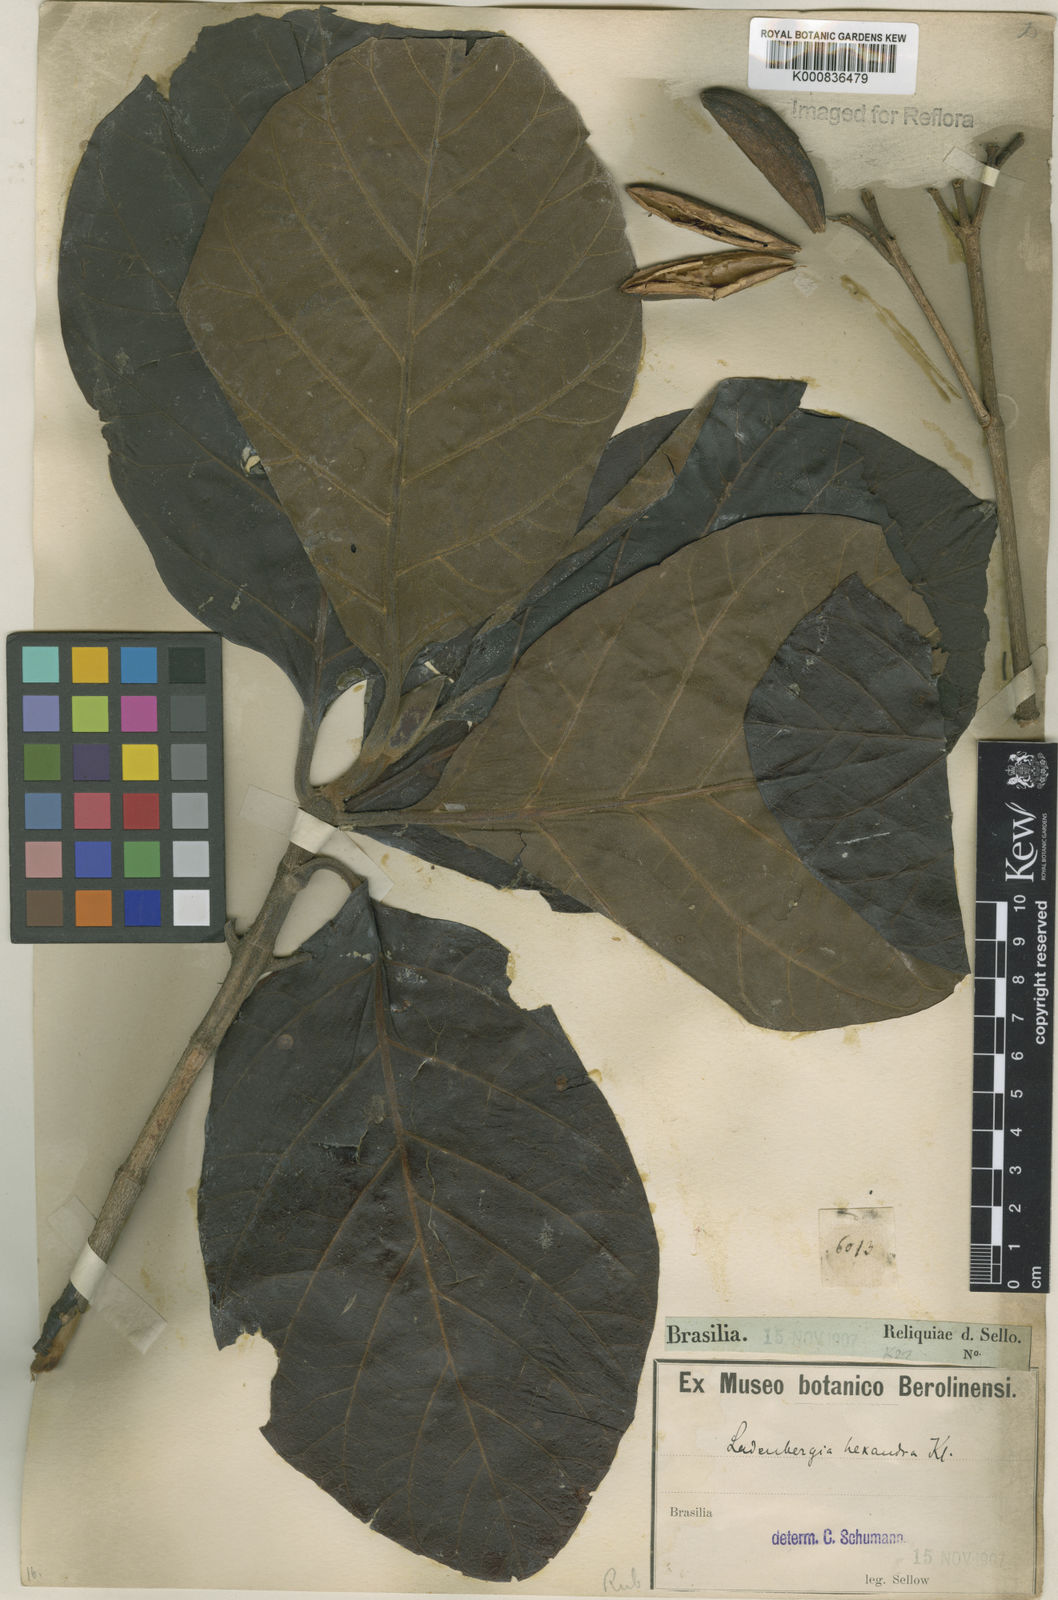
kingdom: Plantae
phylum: Tracheophyta
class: Magnoliopsida
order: Gentianales
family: Rubiaceae
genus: Ladenbergia
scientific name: Ladenbergia hexandra
